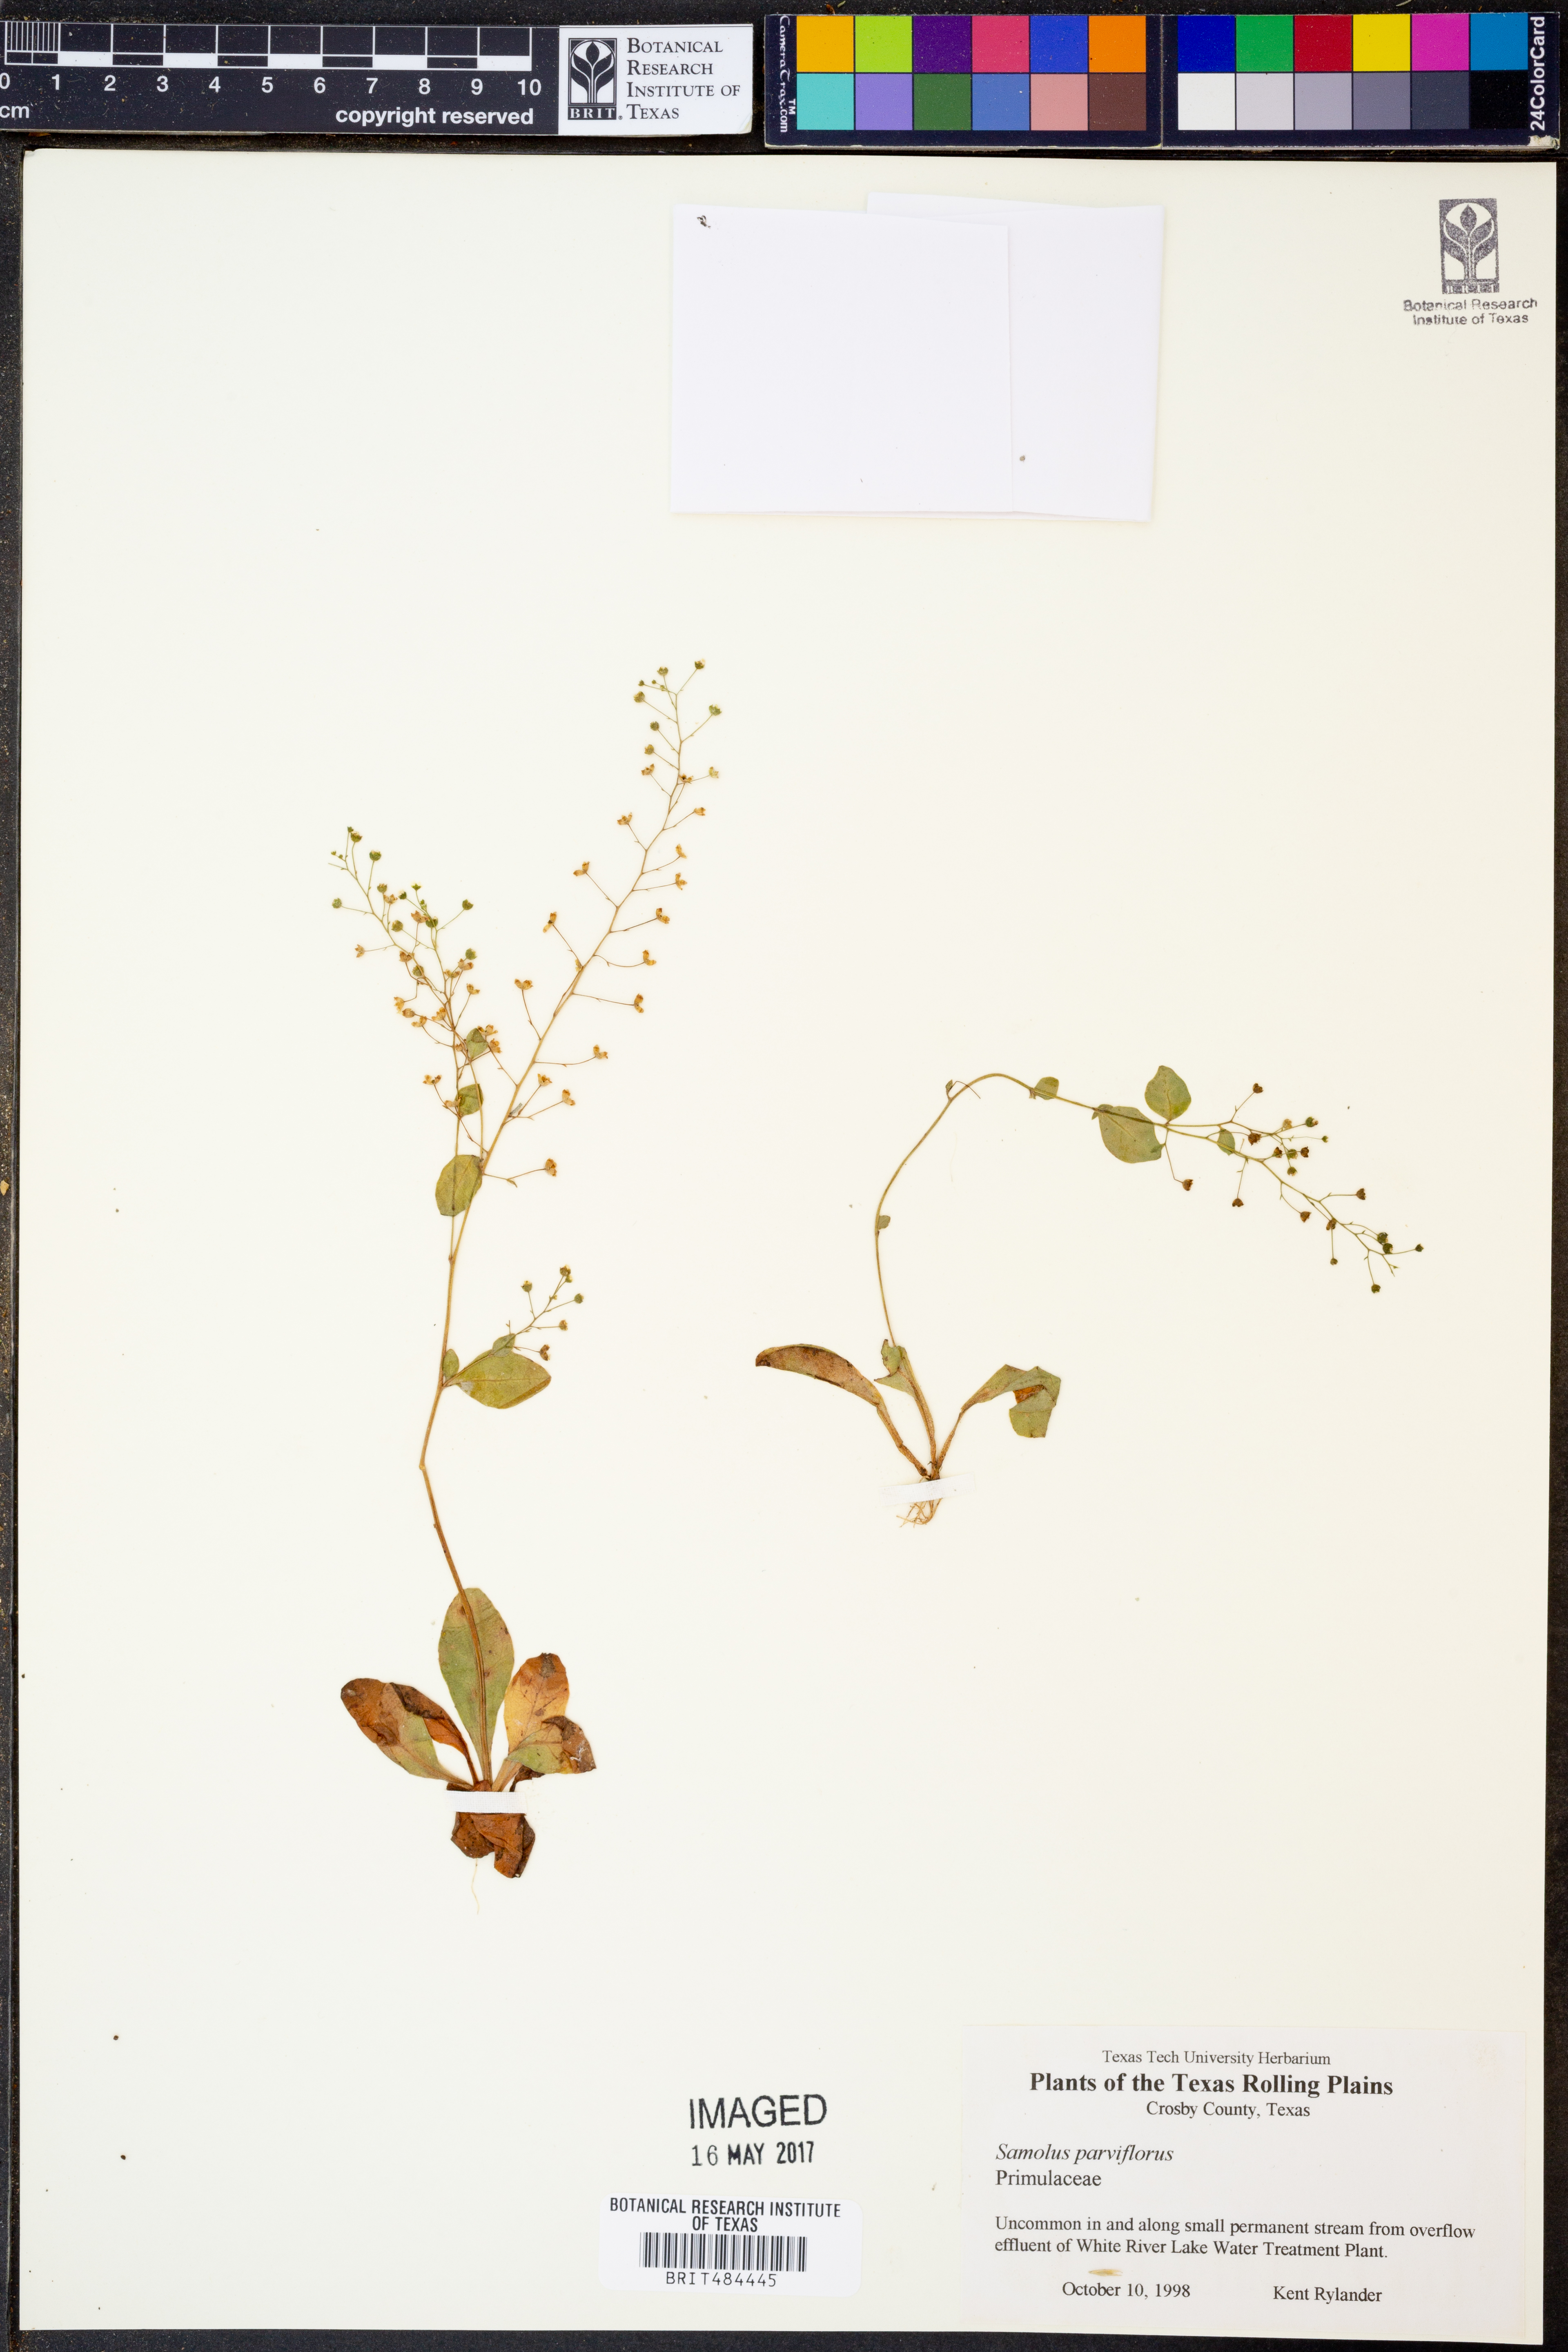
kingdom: Plantae
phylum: Tracheophyta
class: Magnoliopsida
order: Ericales
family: Primulaceae
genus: Samolus
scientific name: Samolus parviflorus
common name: False water pimpernel
